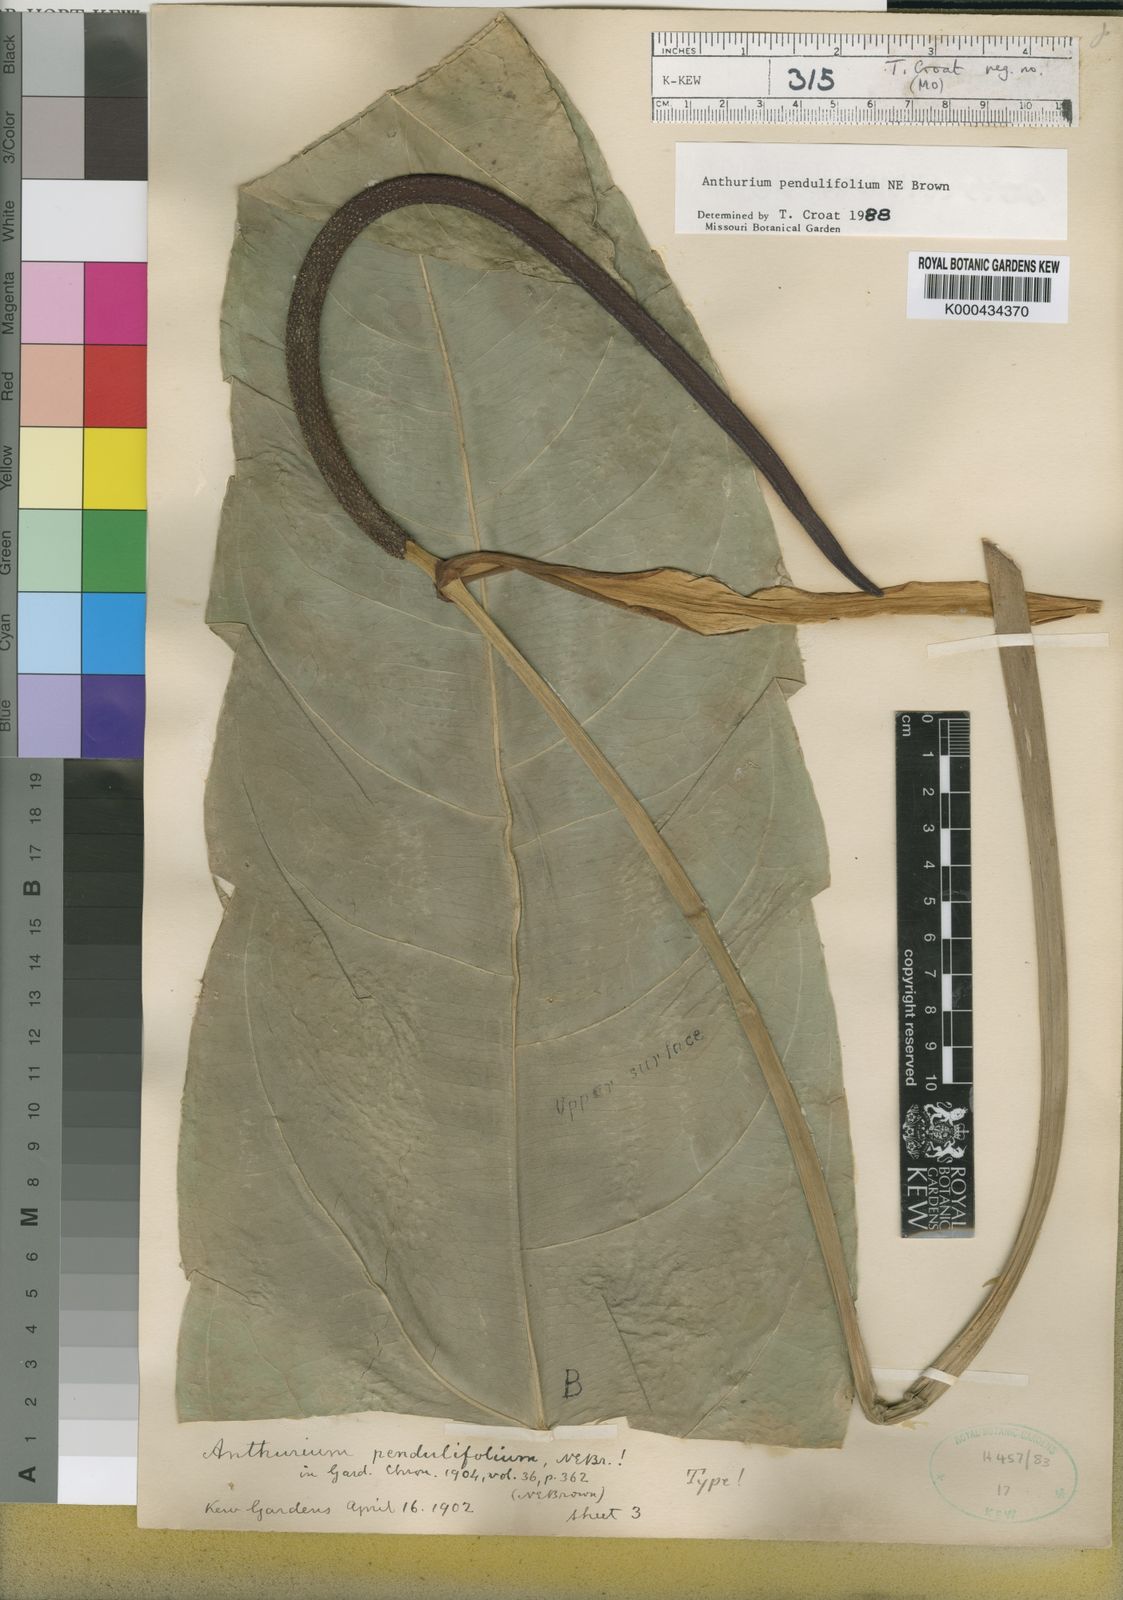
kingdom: Plantae
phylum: Tracheophyta
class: Liliopsida
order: Alismatales
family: Araceae
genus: Anthurium
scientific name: Anthurium pendulifolium
